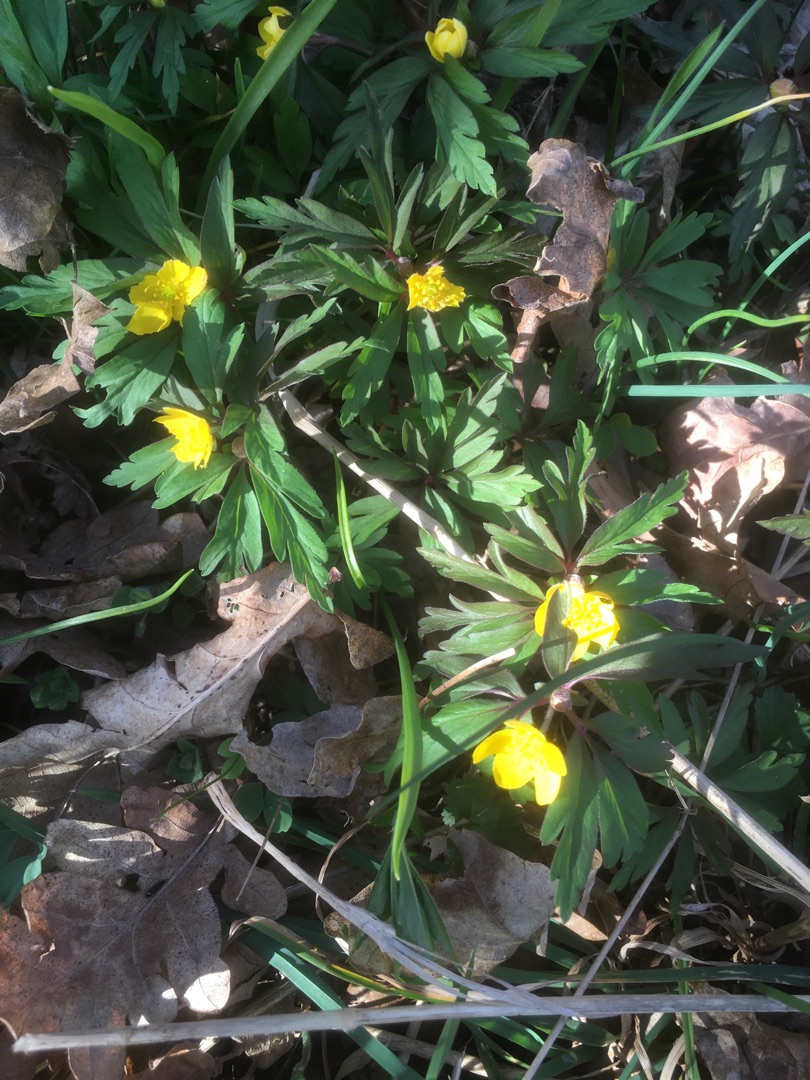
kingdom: Plantae
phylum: Tracheophyta
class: Magnoliopsida
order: Ranunculales
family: Ranunculaceae
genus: Anemone
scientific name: Anemone ranunculoides
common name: Gul anemone
